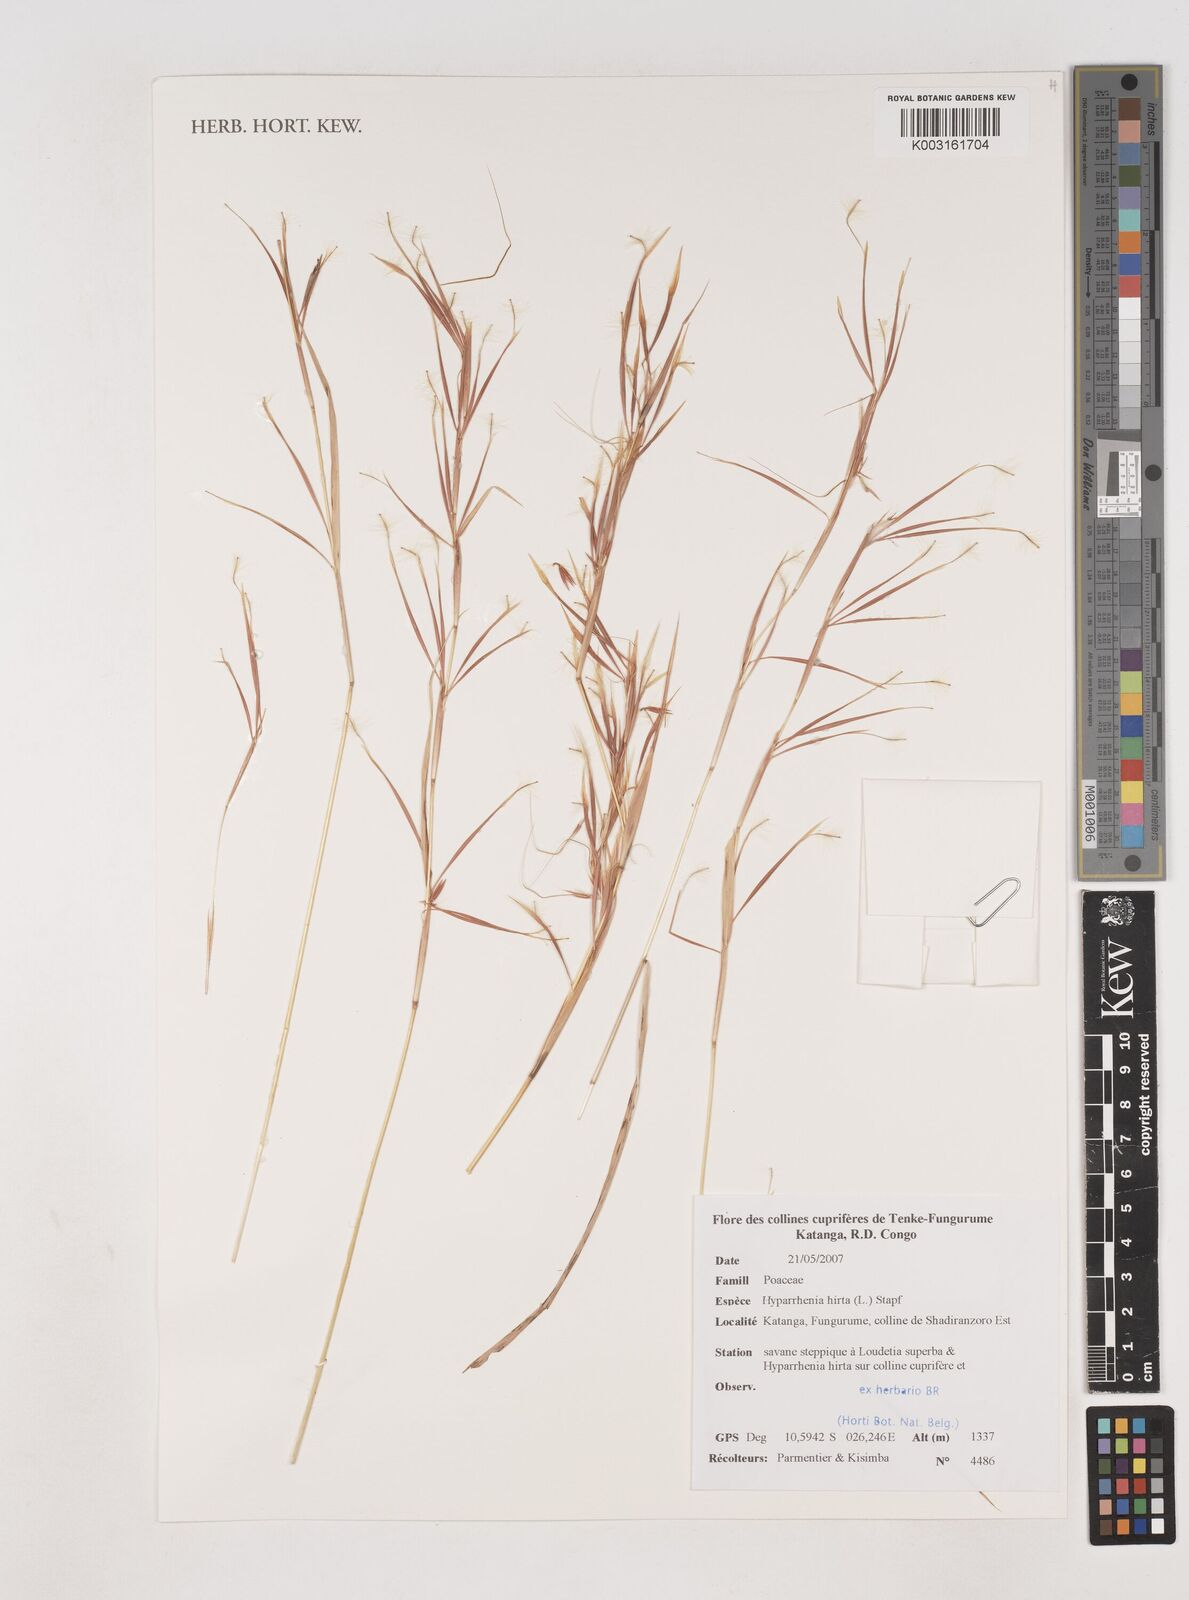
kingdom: Plantae
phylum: Tracheophyta
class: Liliopsida
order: Poales
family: Poaceae
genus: Hyparrhenia
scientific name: Hyparrhenia hirta
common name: Thatching grass
